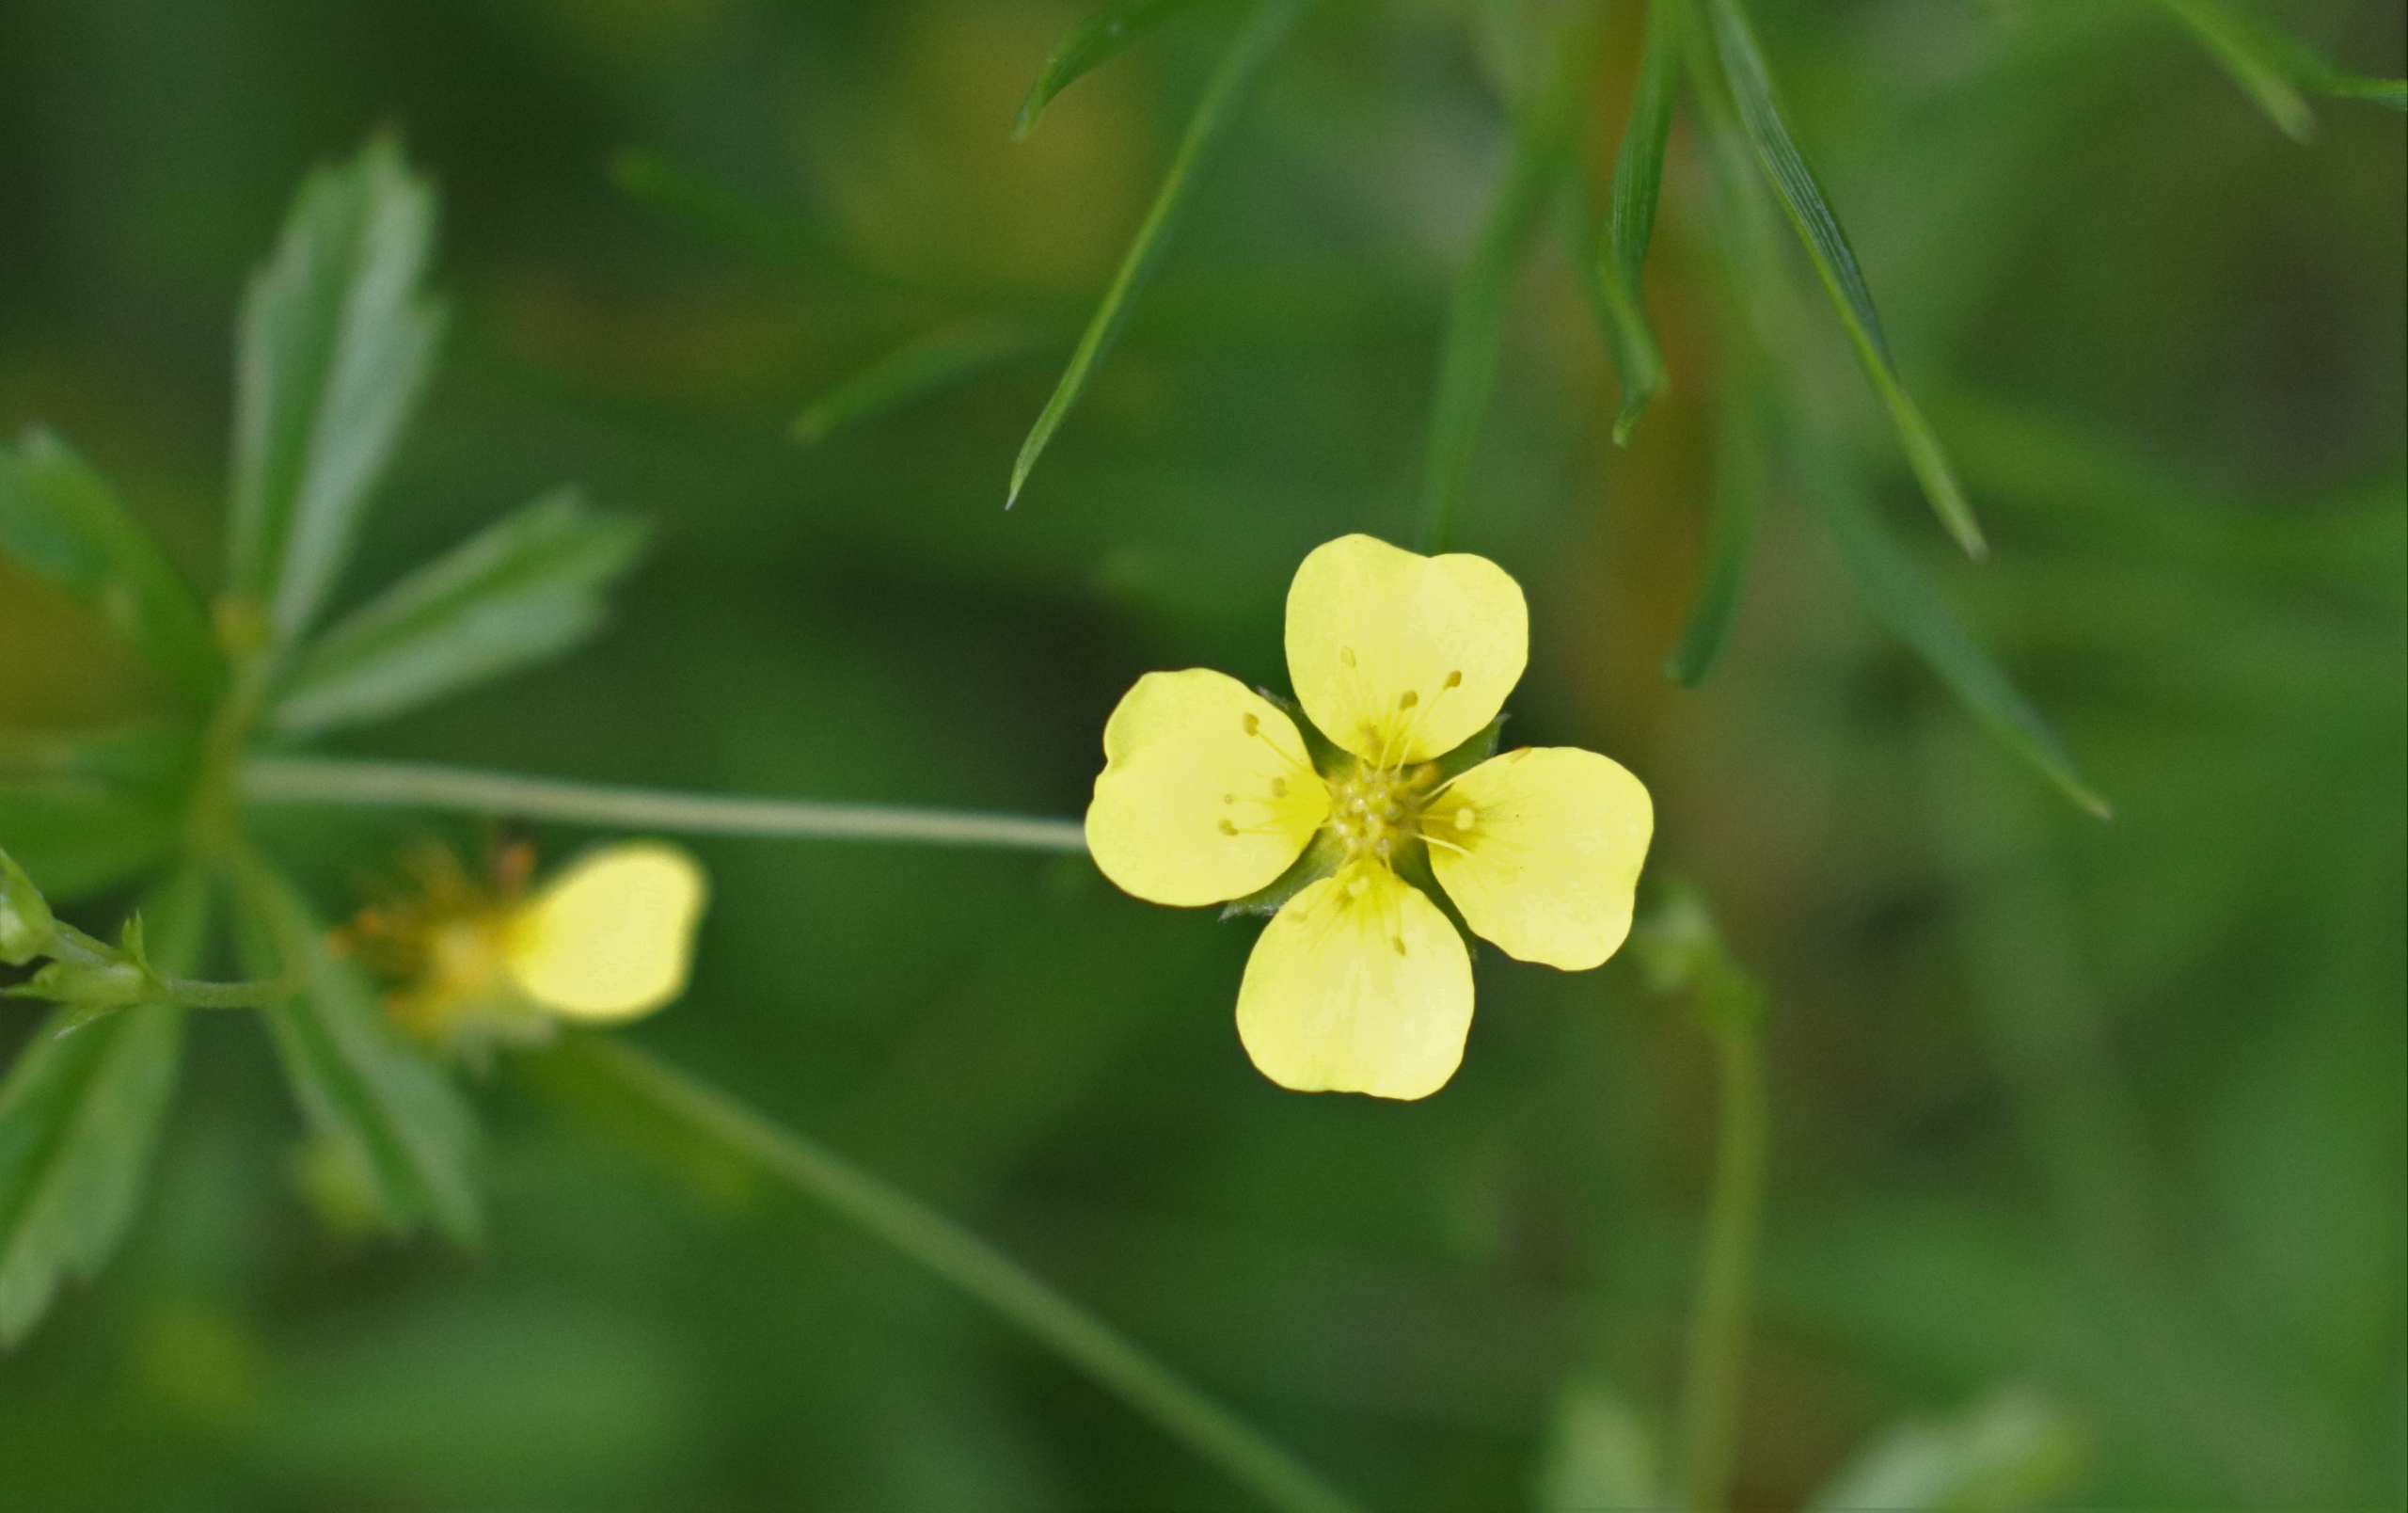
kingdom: Plantae
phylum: Tracheophyta
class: Magnoliopsida
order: Rosales
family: Rosaceae
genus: Potentilla
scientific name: Potentilla erecta
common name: Tormentil
